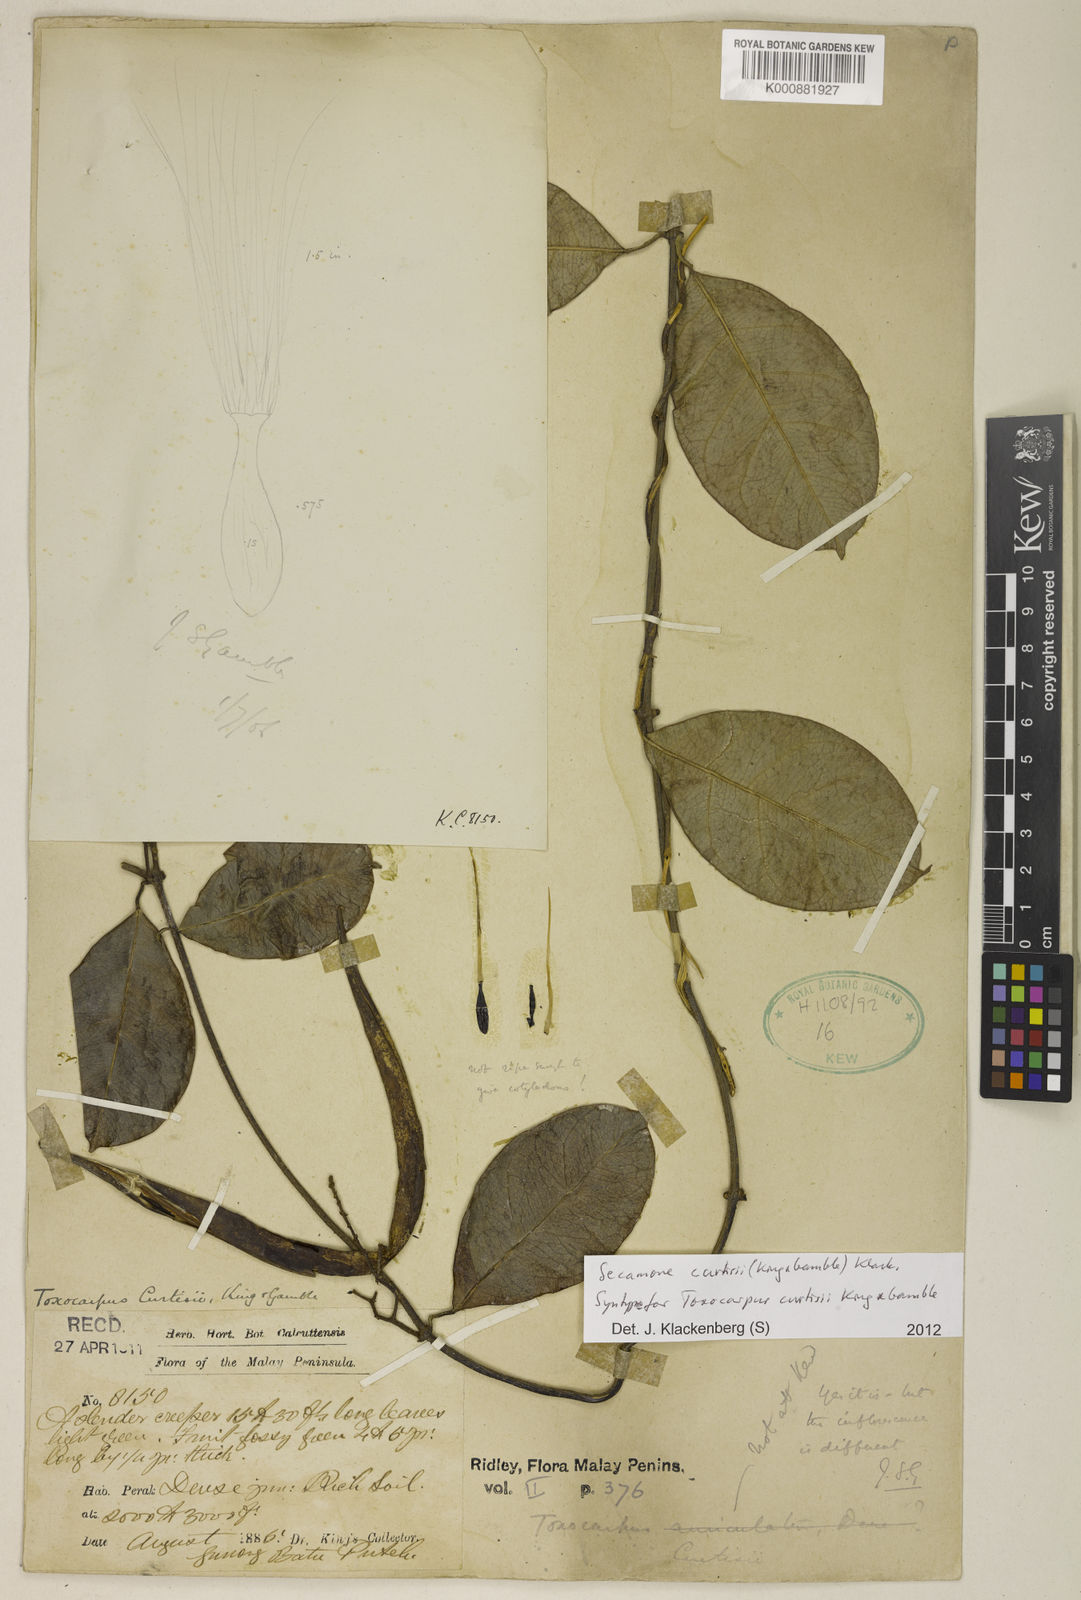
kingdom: Plantae
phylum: Tracheophyta
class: Magnoliopsida
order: Gentianales
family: Apocynaceae
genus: Secamone
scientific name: Secamone curtisii
